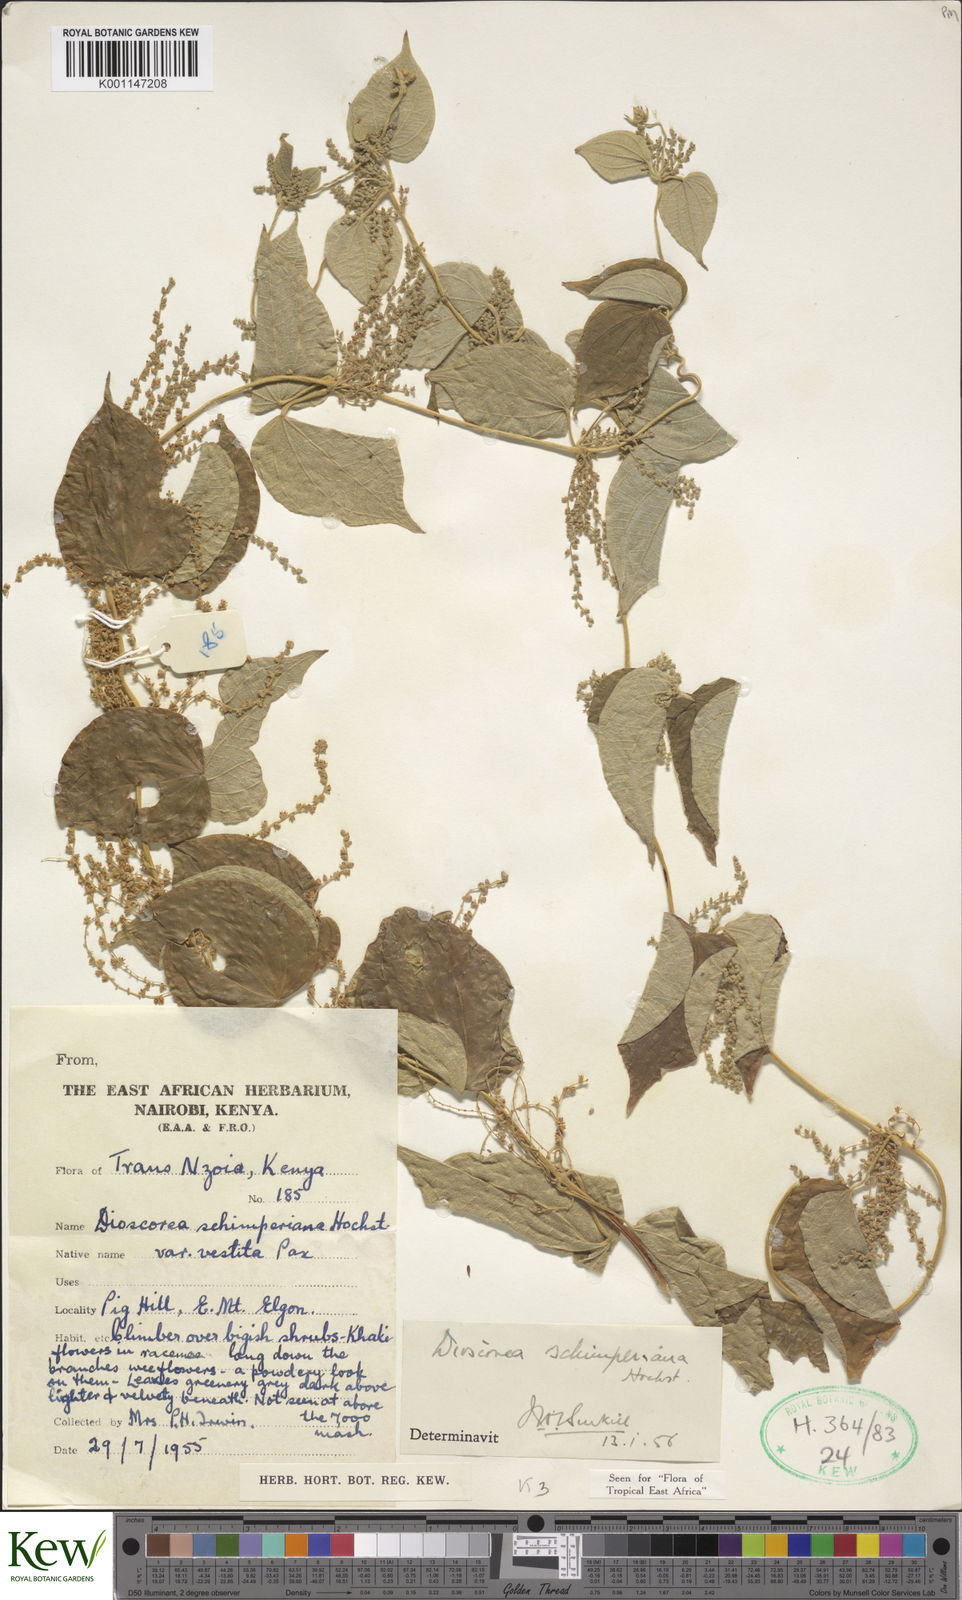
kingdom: Plantae
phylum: Tracheophyta
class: Liliopsida
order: Dioscoreales
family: Dioscoreaceae
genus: Dioscorea
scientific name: Dioscorea schimperiana
